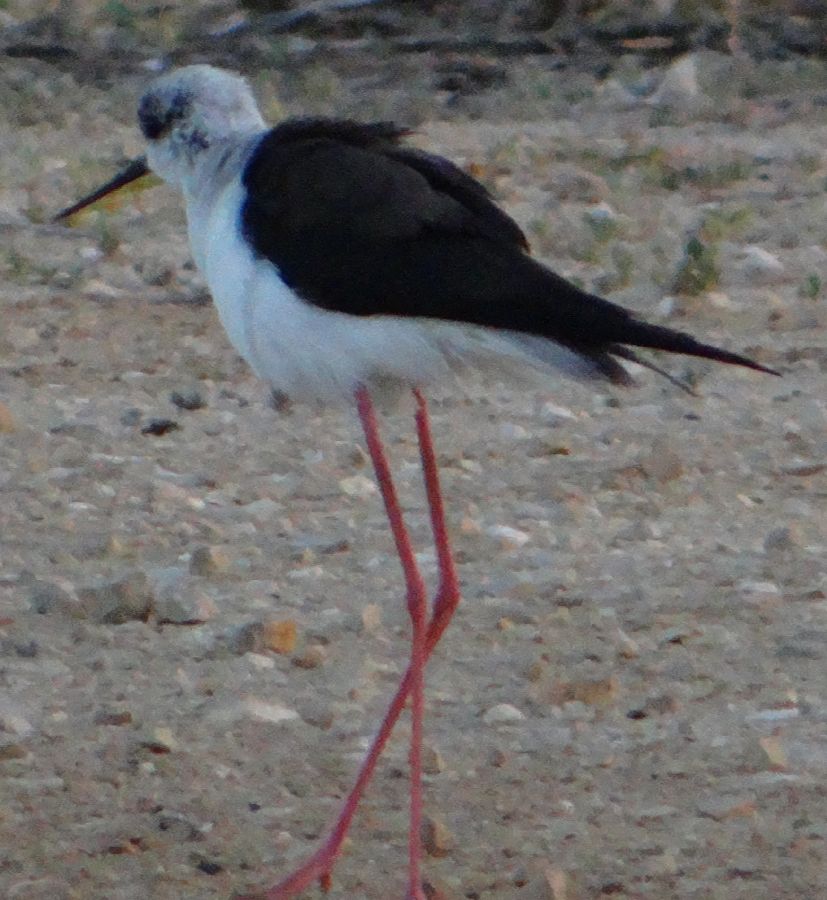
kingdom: Animalia
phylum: Chordata
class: Aves
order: Charadriiformes
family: Recurvirostridae
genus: Himantopus
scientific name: Himantopus himantopus
